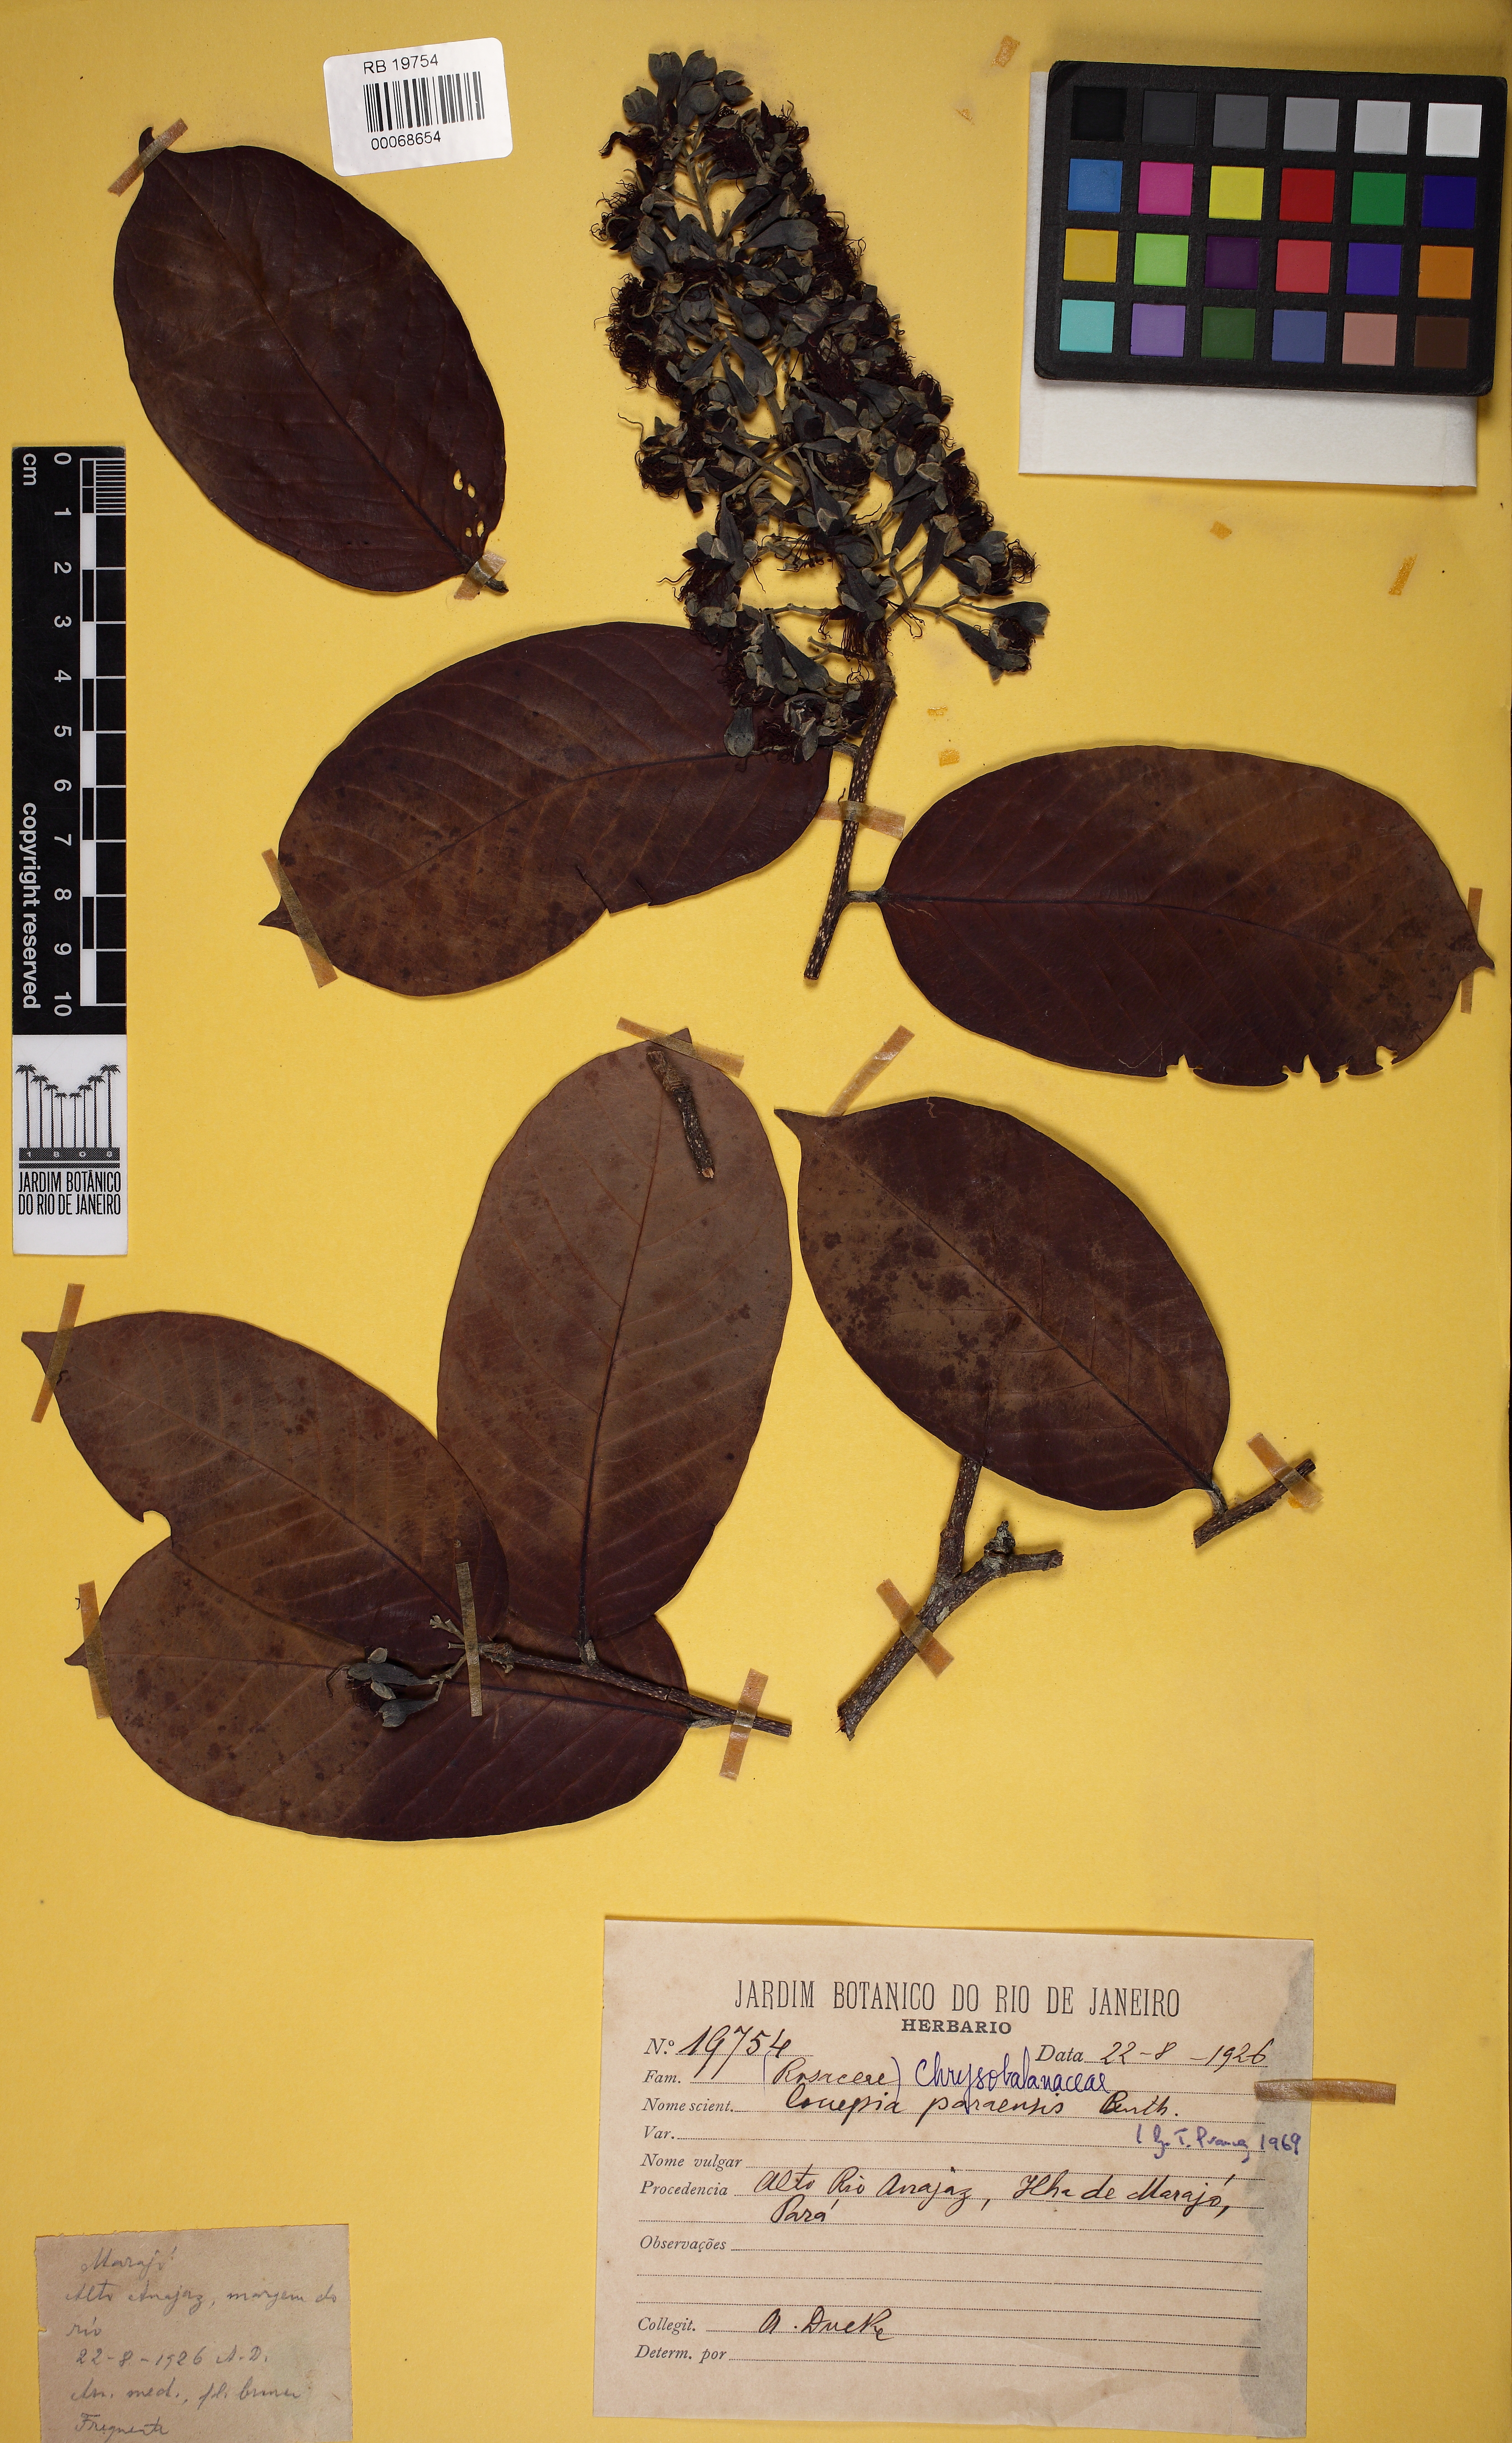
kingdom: Plantae
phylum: Tracheophyta
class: Magnoliopsida
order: Malpighiales
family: Chrysobalanaceae
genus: Couepia
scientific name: Couepia paraensis
